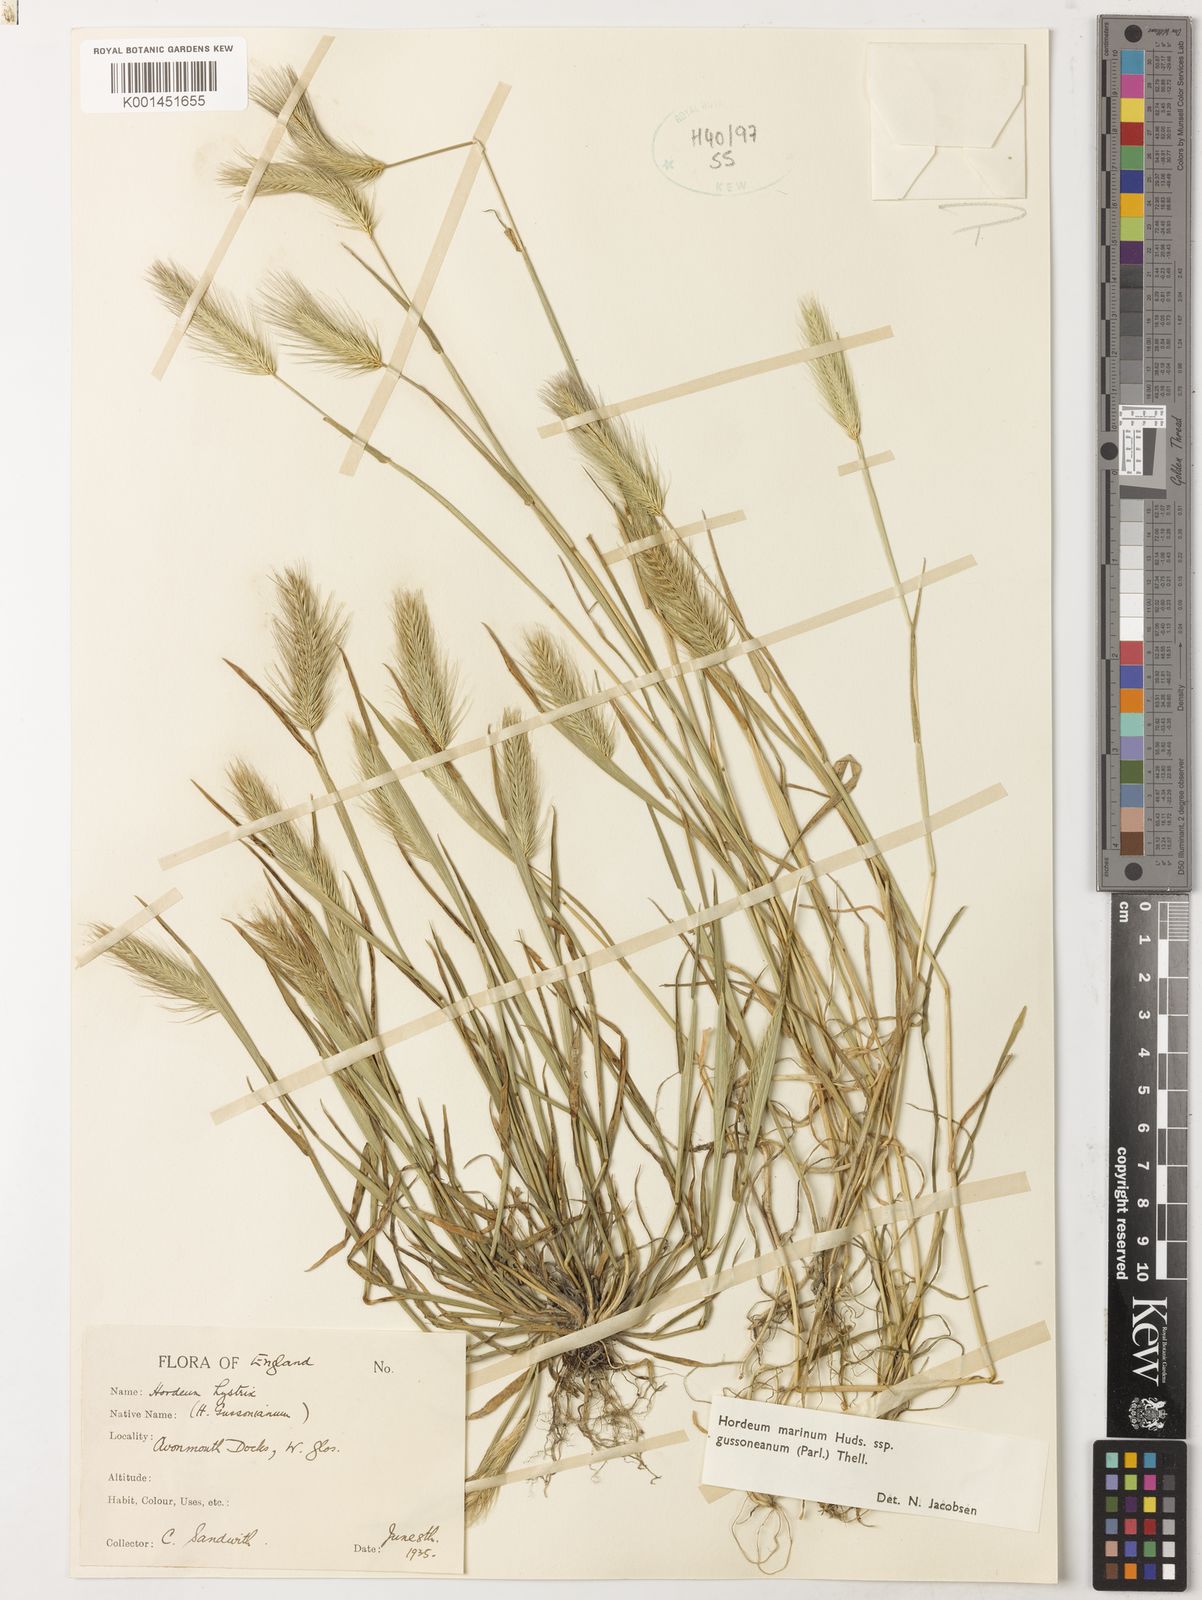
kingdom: Plantae
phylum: Tracheophyta
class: Liliopsida
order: Poales
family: Poaceae
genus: Hordeum
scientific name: Hordeum marinum
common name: Sea barley
